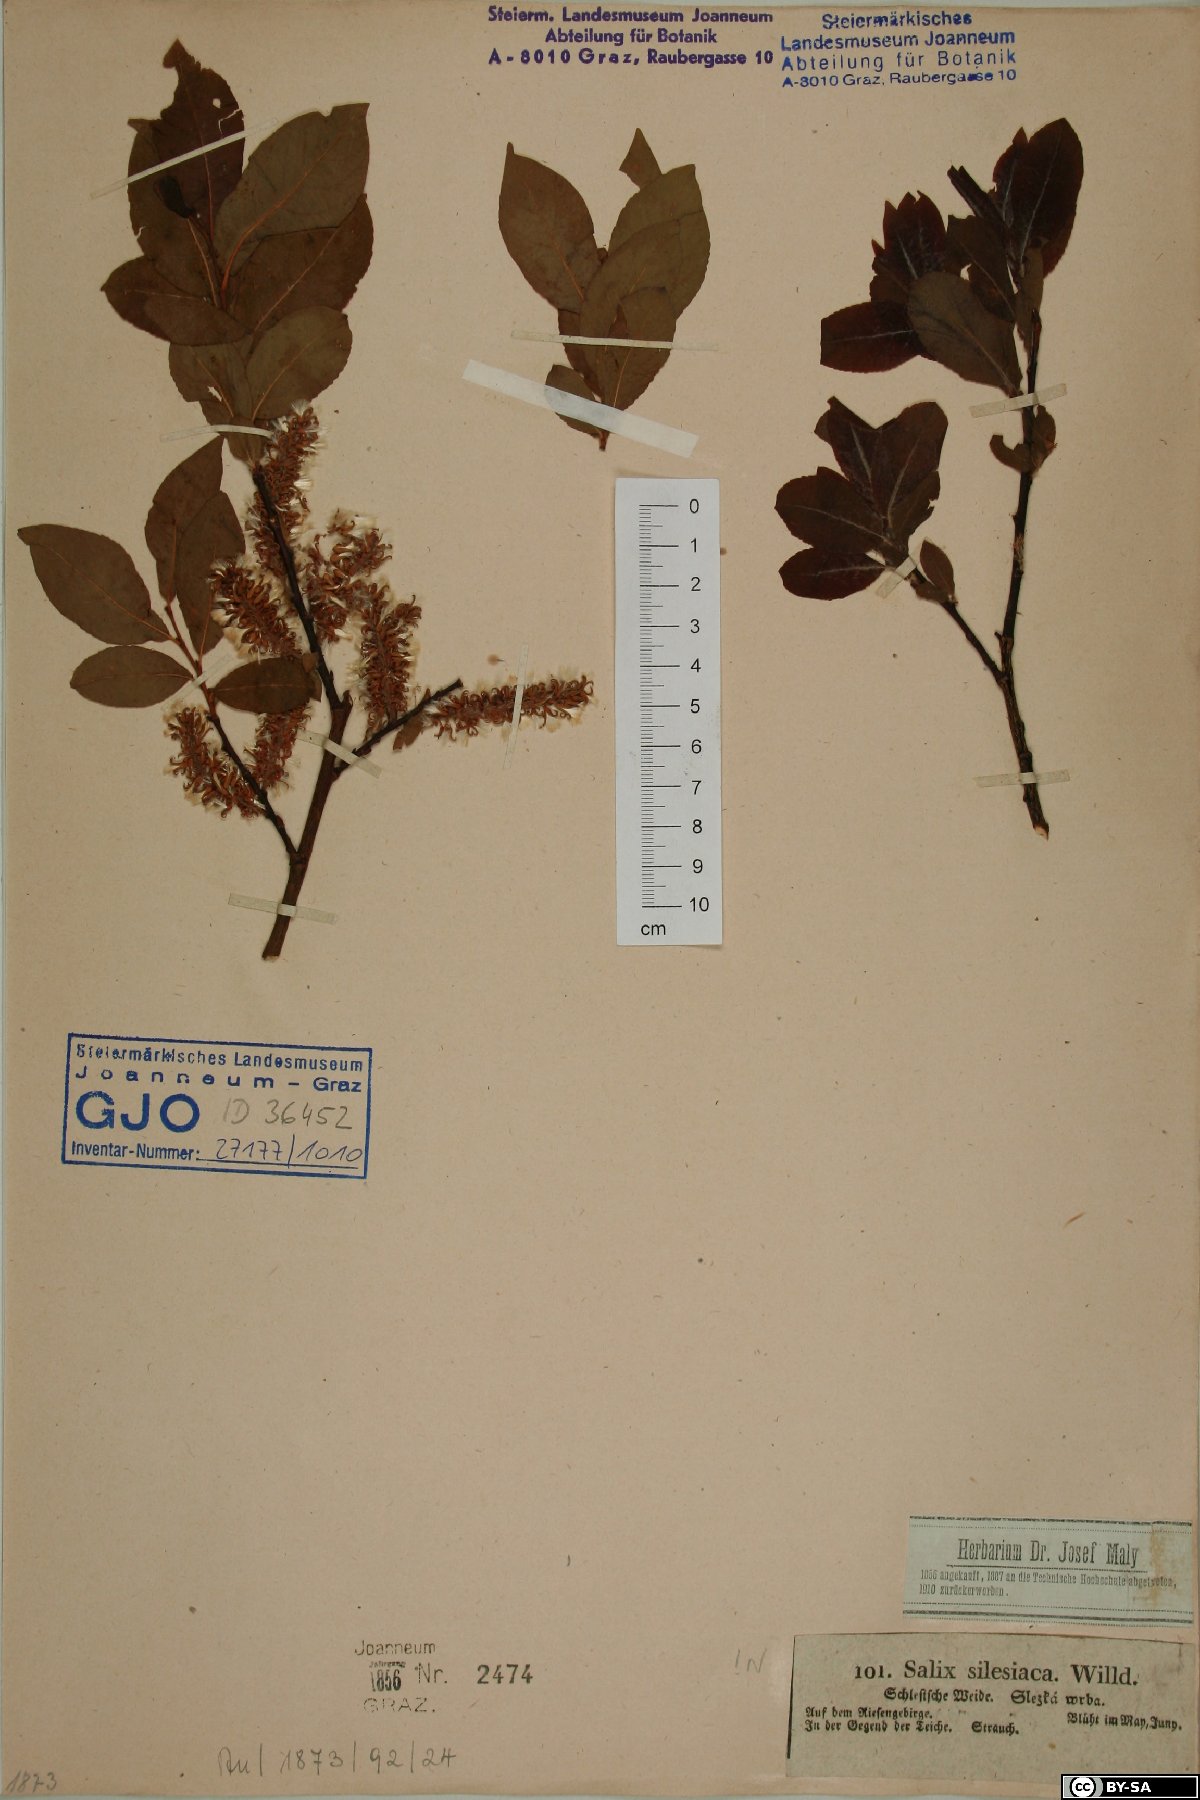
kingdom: Plantae
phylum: Tracheophyta
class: Magnoliopsida
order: Malpighiales
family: Salicaceae
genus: Salix
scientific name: Salix silesiaca
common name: Silesian willow
